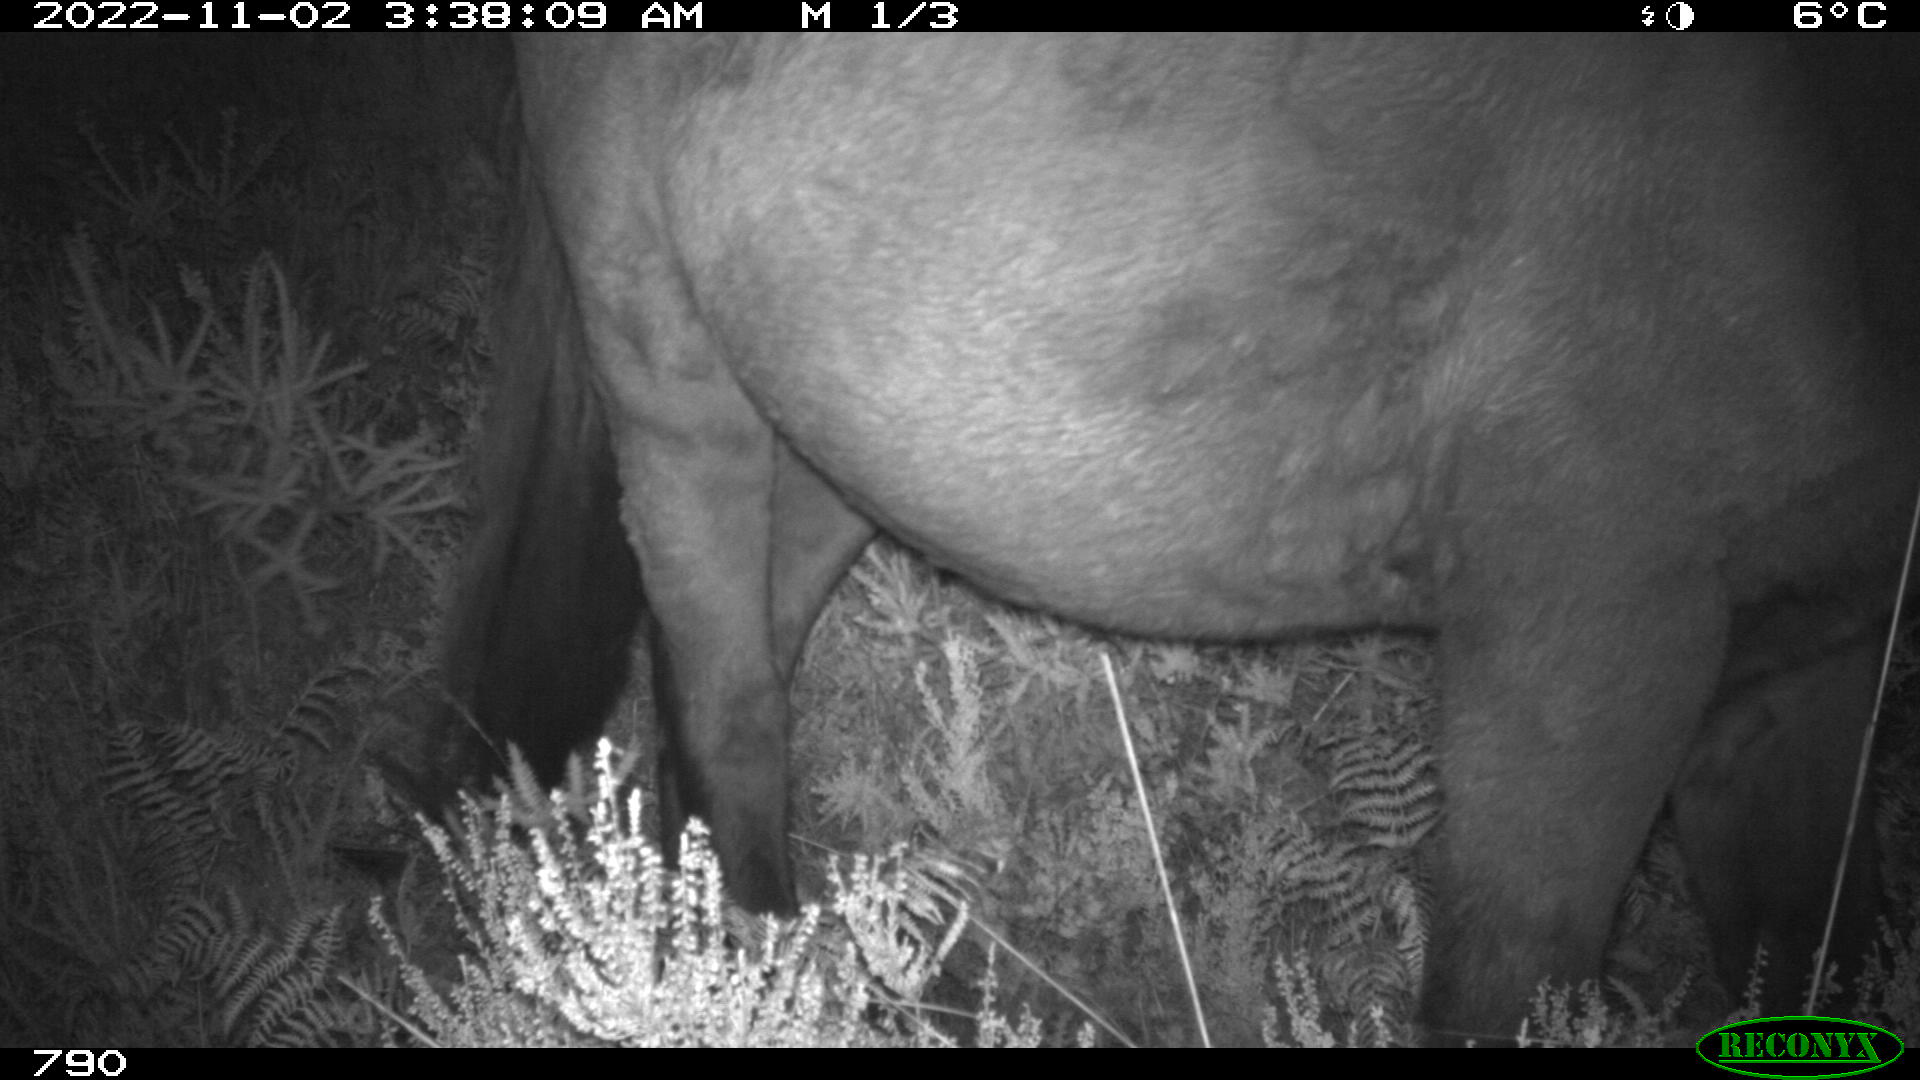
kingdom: Animalia
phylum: Chordata
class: Mammalia
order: Perissodactyla
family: Equidae
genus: Equus
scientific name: Equus caballus
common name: Horse
